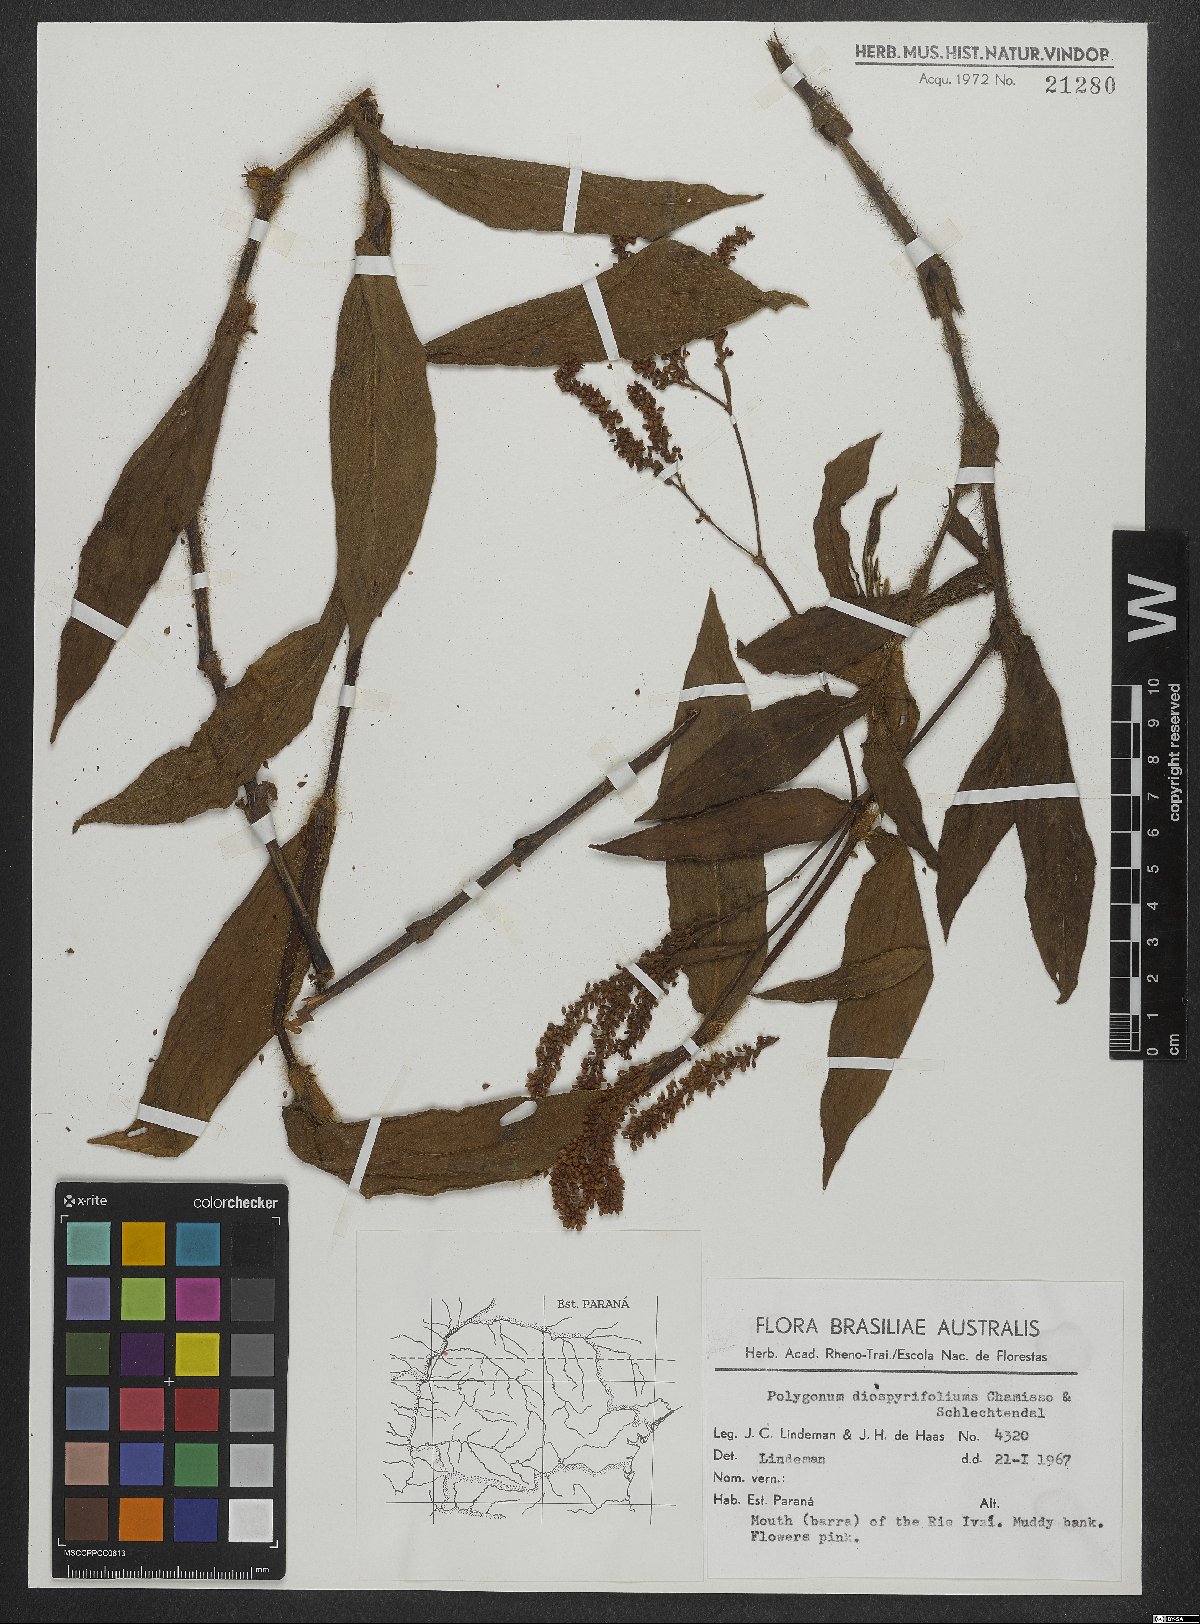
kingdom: Plantae
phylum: Tracheophyta
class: Magnoliopsida
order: Caryophyllales
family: Polygonaceae
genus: Persicaria
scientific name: Persicaria diospyrifolia
